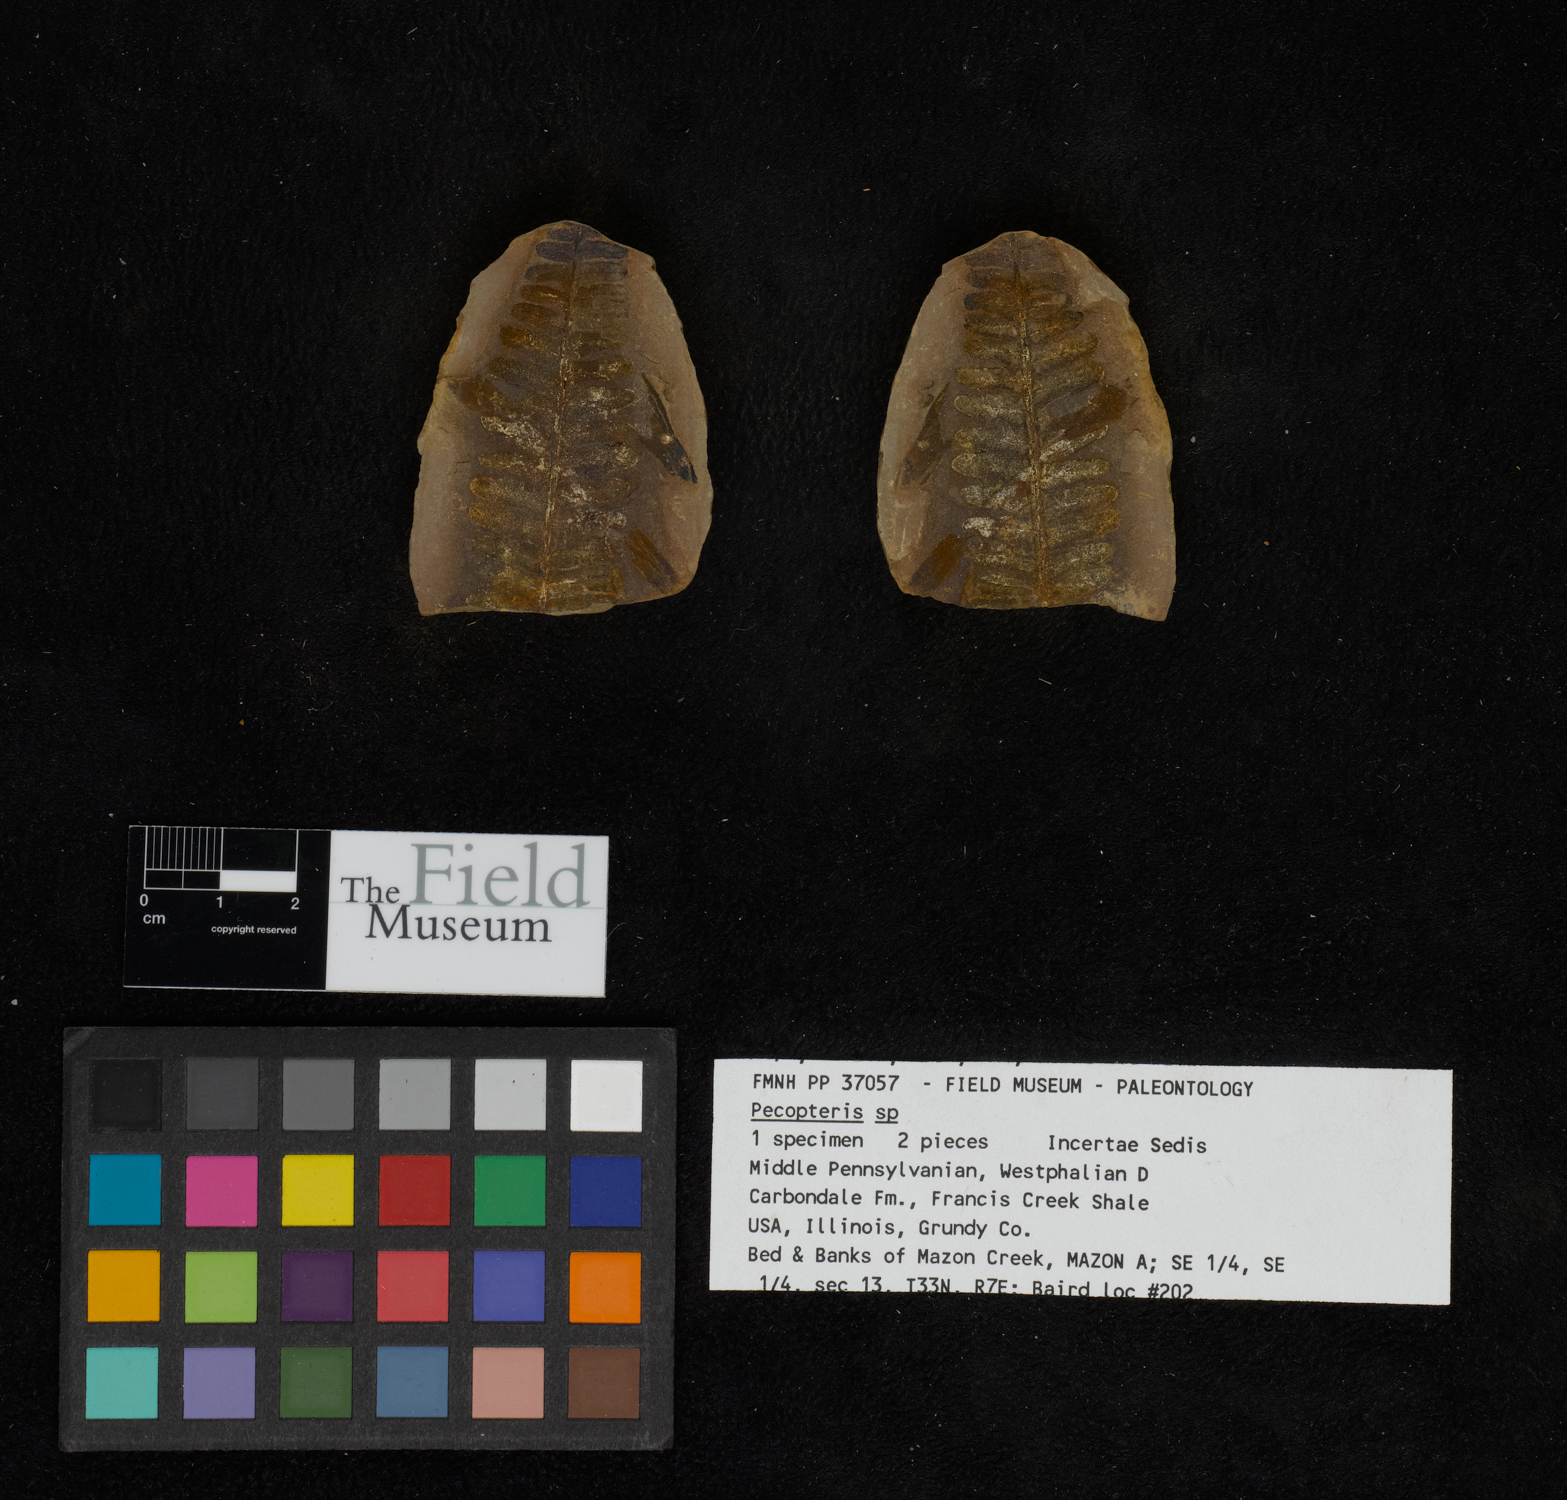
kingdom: Plantae
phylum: Tracheophyta
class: Polypodiopsida
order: Marattiales
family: Asterothecaceae
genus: Pecopteris
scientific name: Pecopteris
